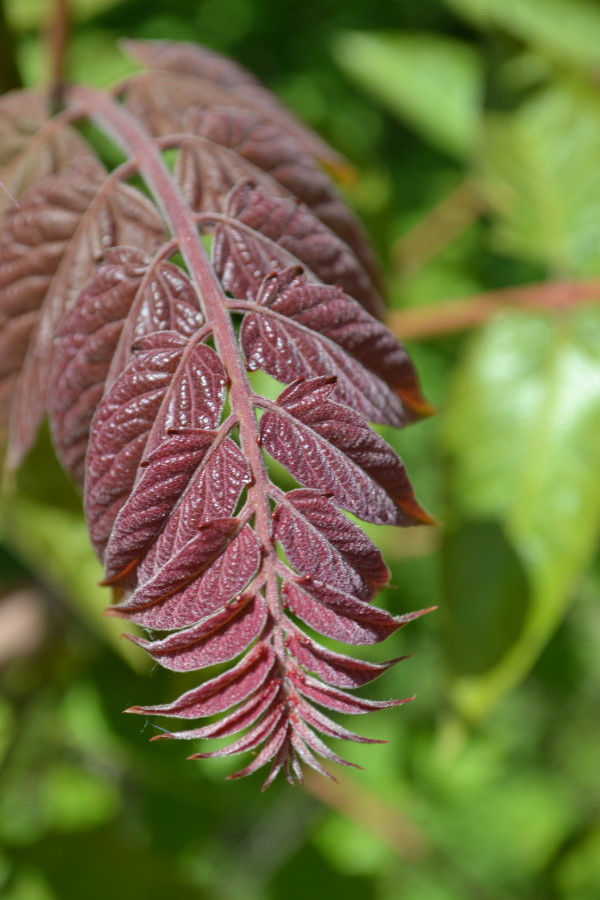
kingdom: Plantae
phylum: Tracheophyta
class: Magnoliopsida
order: Fagales
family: Juglandaceae
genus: Juglans
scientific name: Juglans regia
